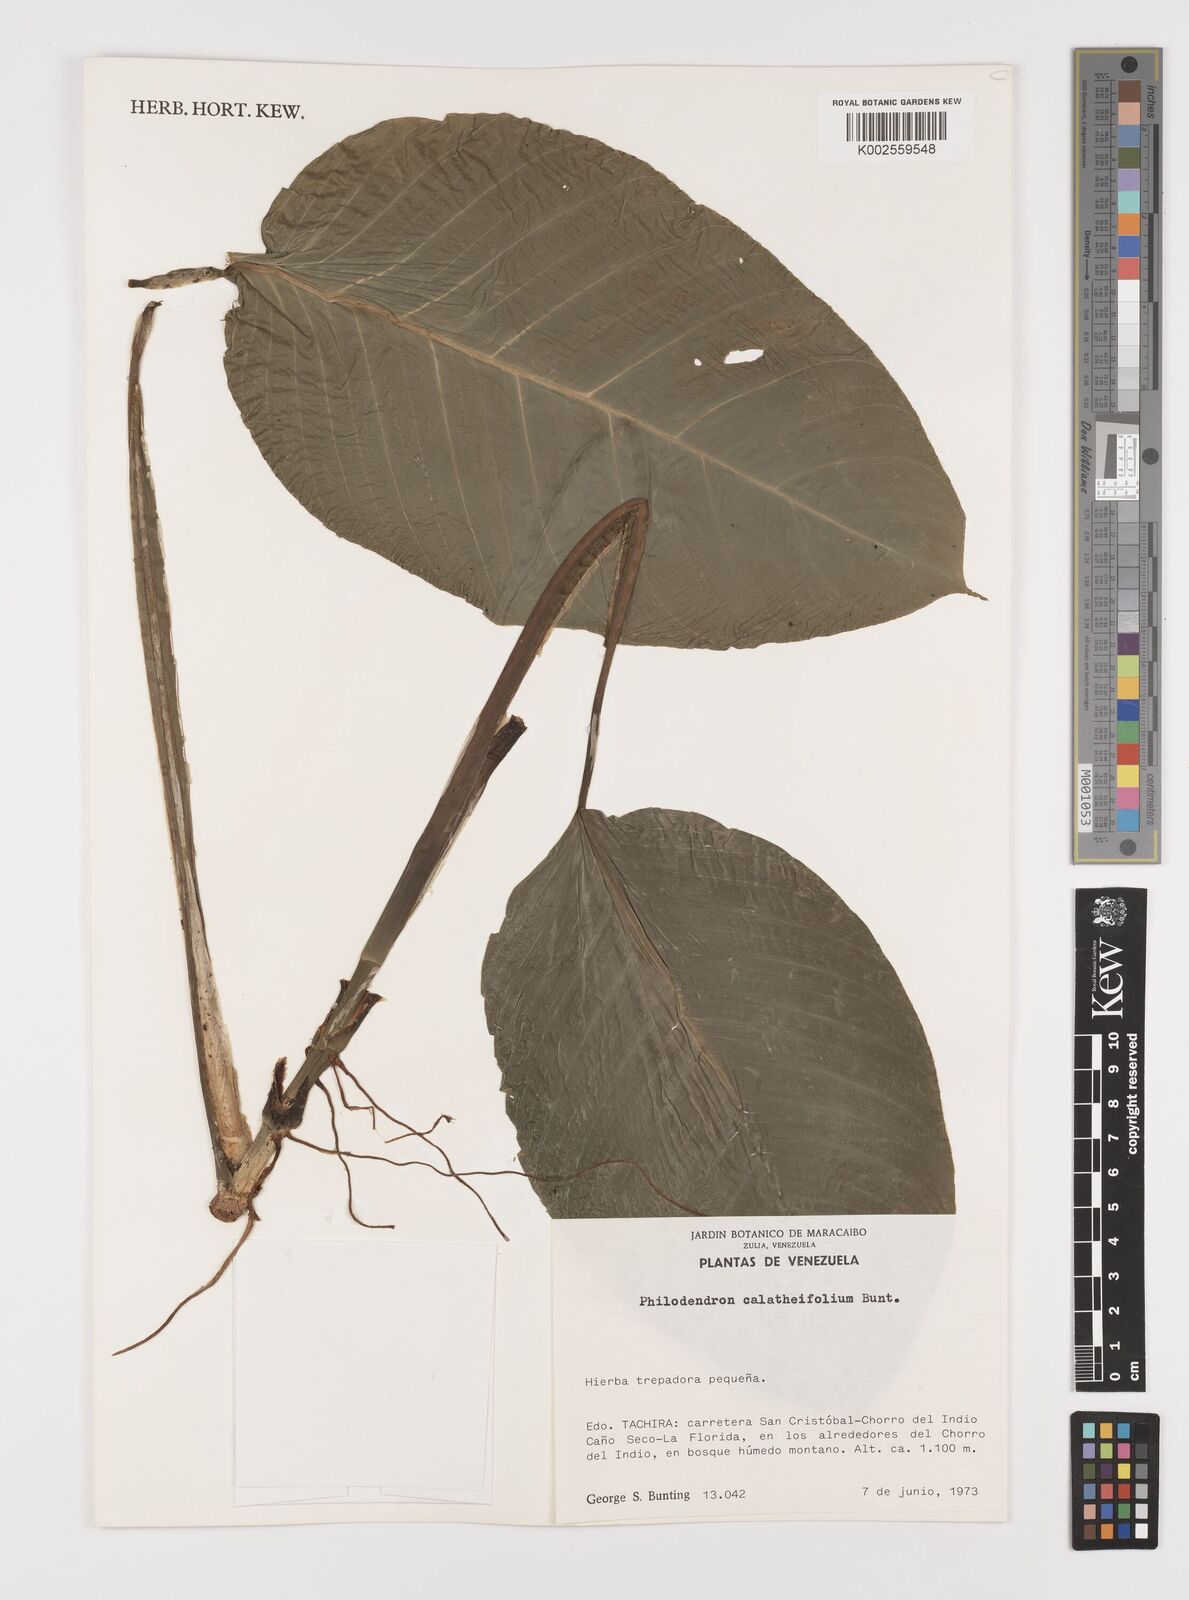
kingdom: Plantae
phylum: Tracheophyta
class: Liliopsida
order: Alismatales
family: Araceae
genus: Philodendron
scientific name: Philodendron calatheifolium
